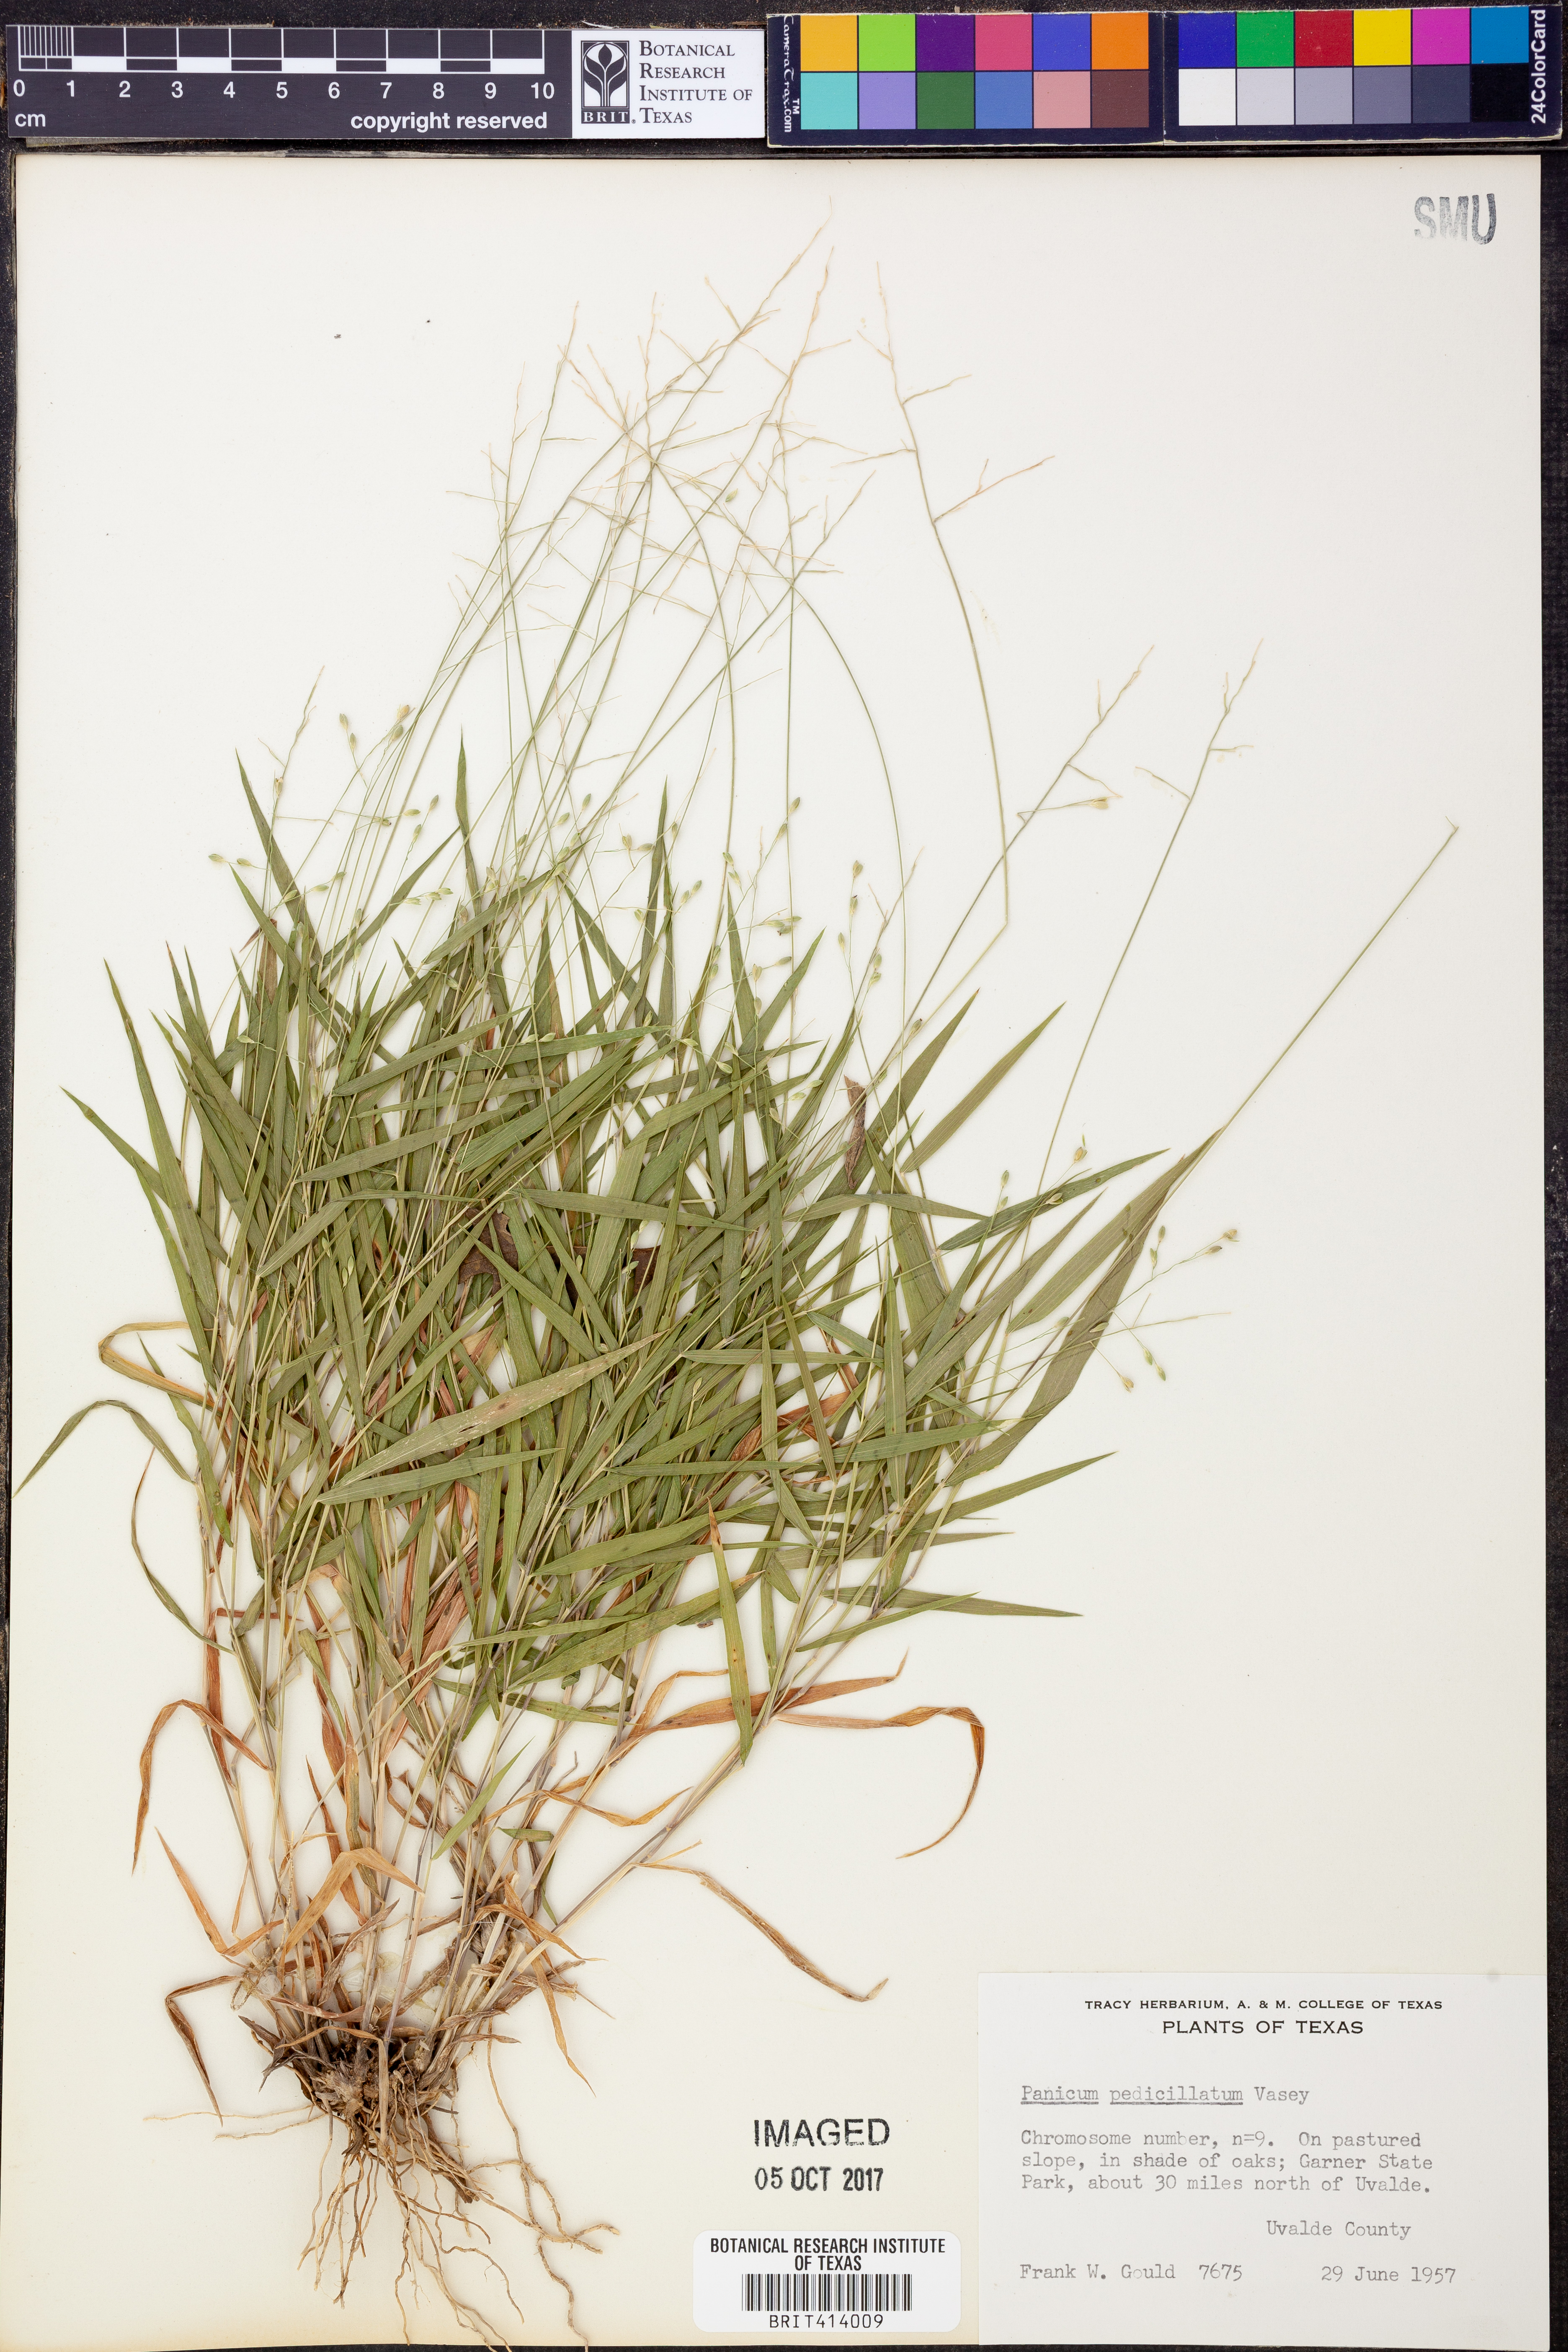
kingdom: Plantae
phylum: Tracheophyta
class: Liliopsida
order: Poales
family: Poaceae
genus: Dichanthelium
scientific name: Dichanthelium transiens
